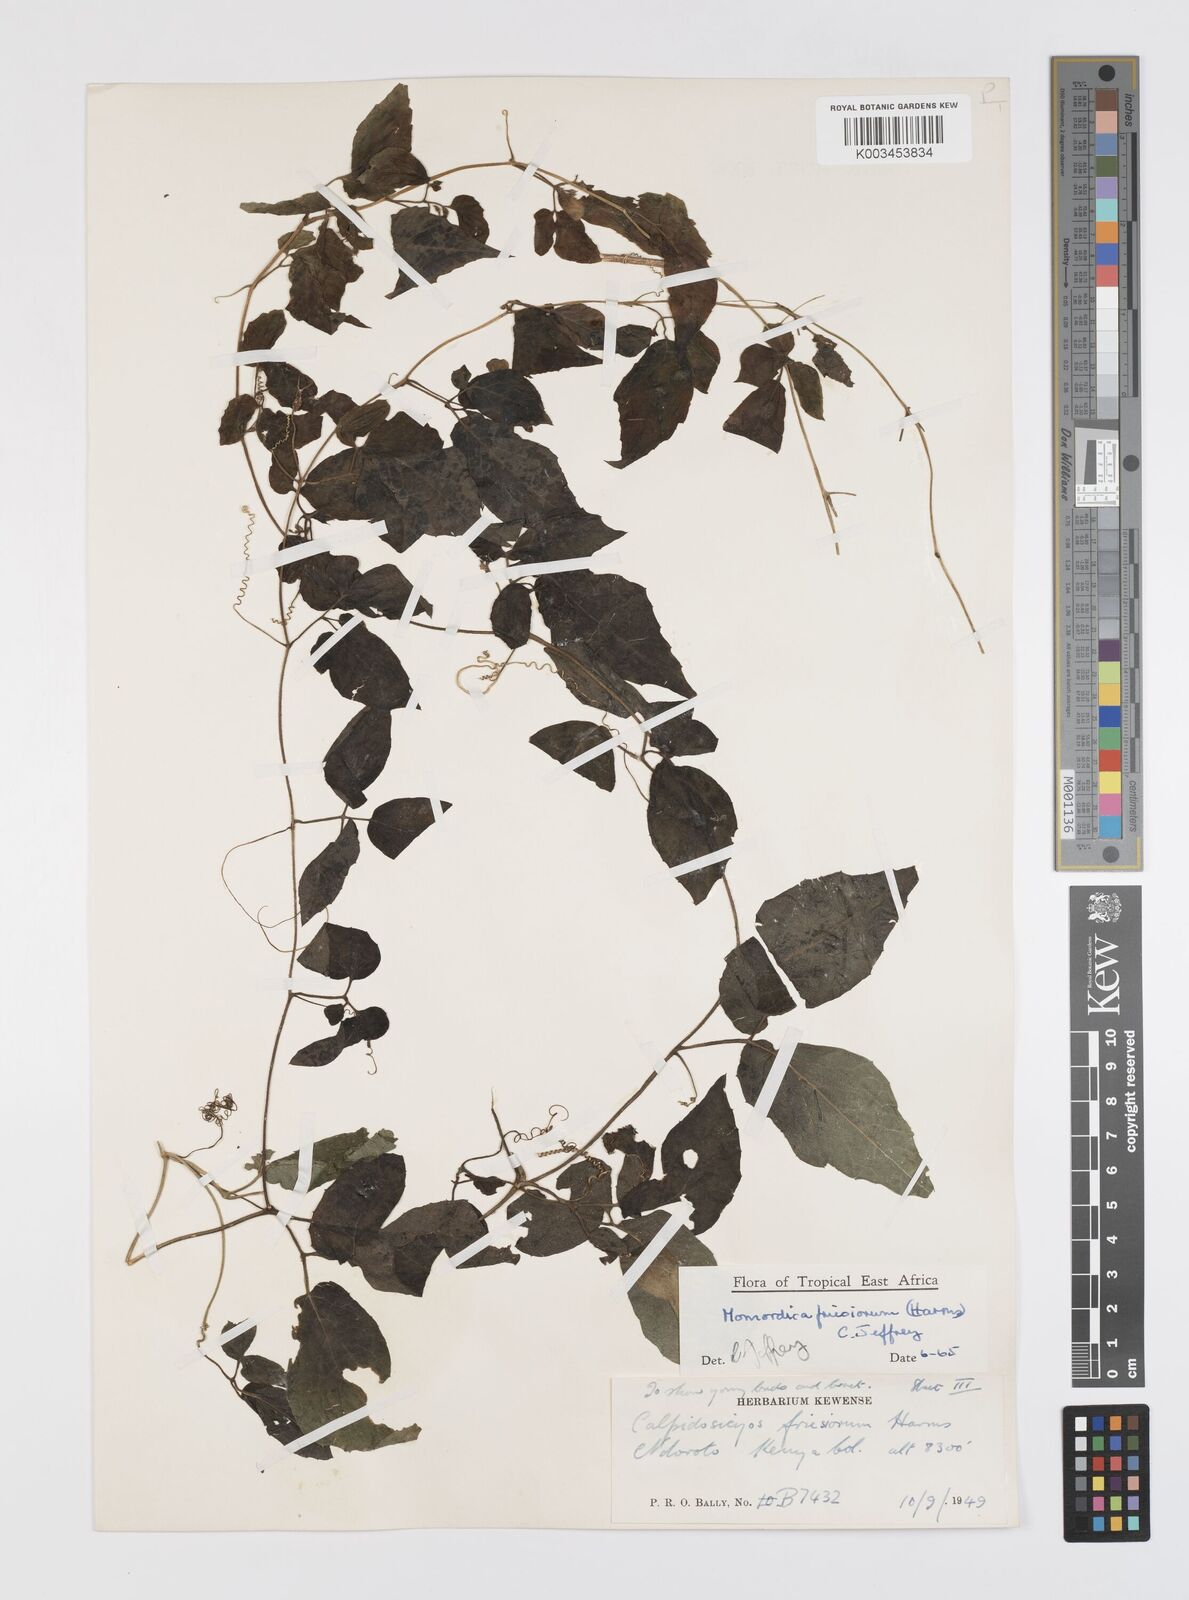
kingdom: Plantae
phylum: Tracheophyta
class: Magnoliopsida
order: Cucurbitales
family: Cucurbitaceae
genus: Momordica
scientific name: Momordica friesiorum
